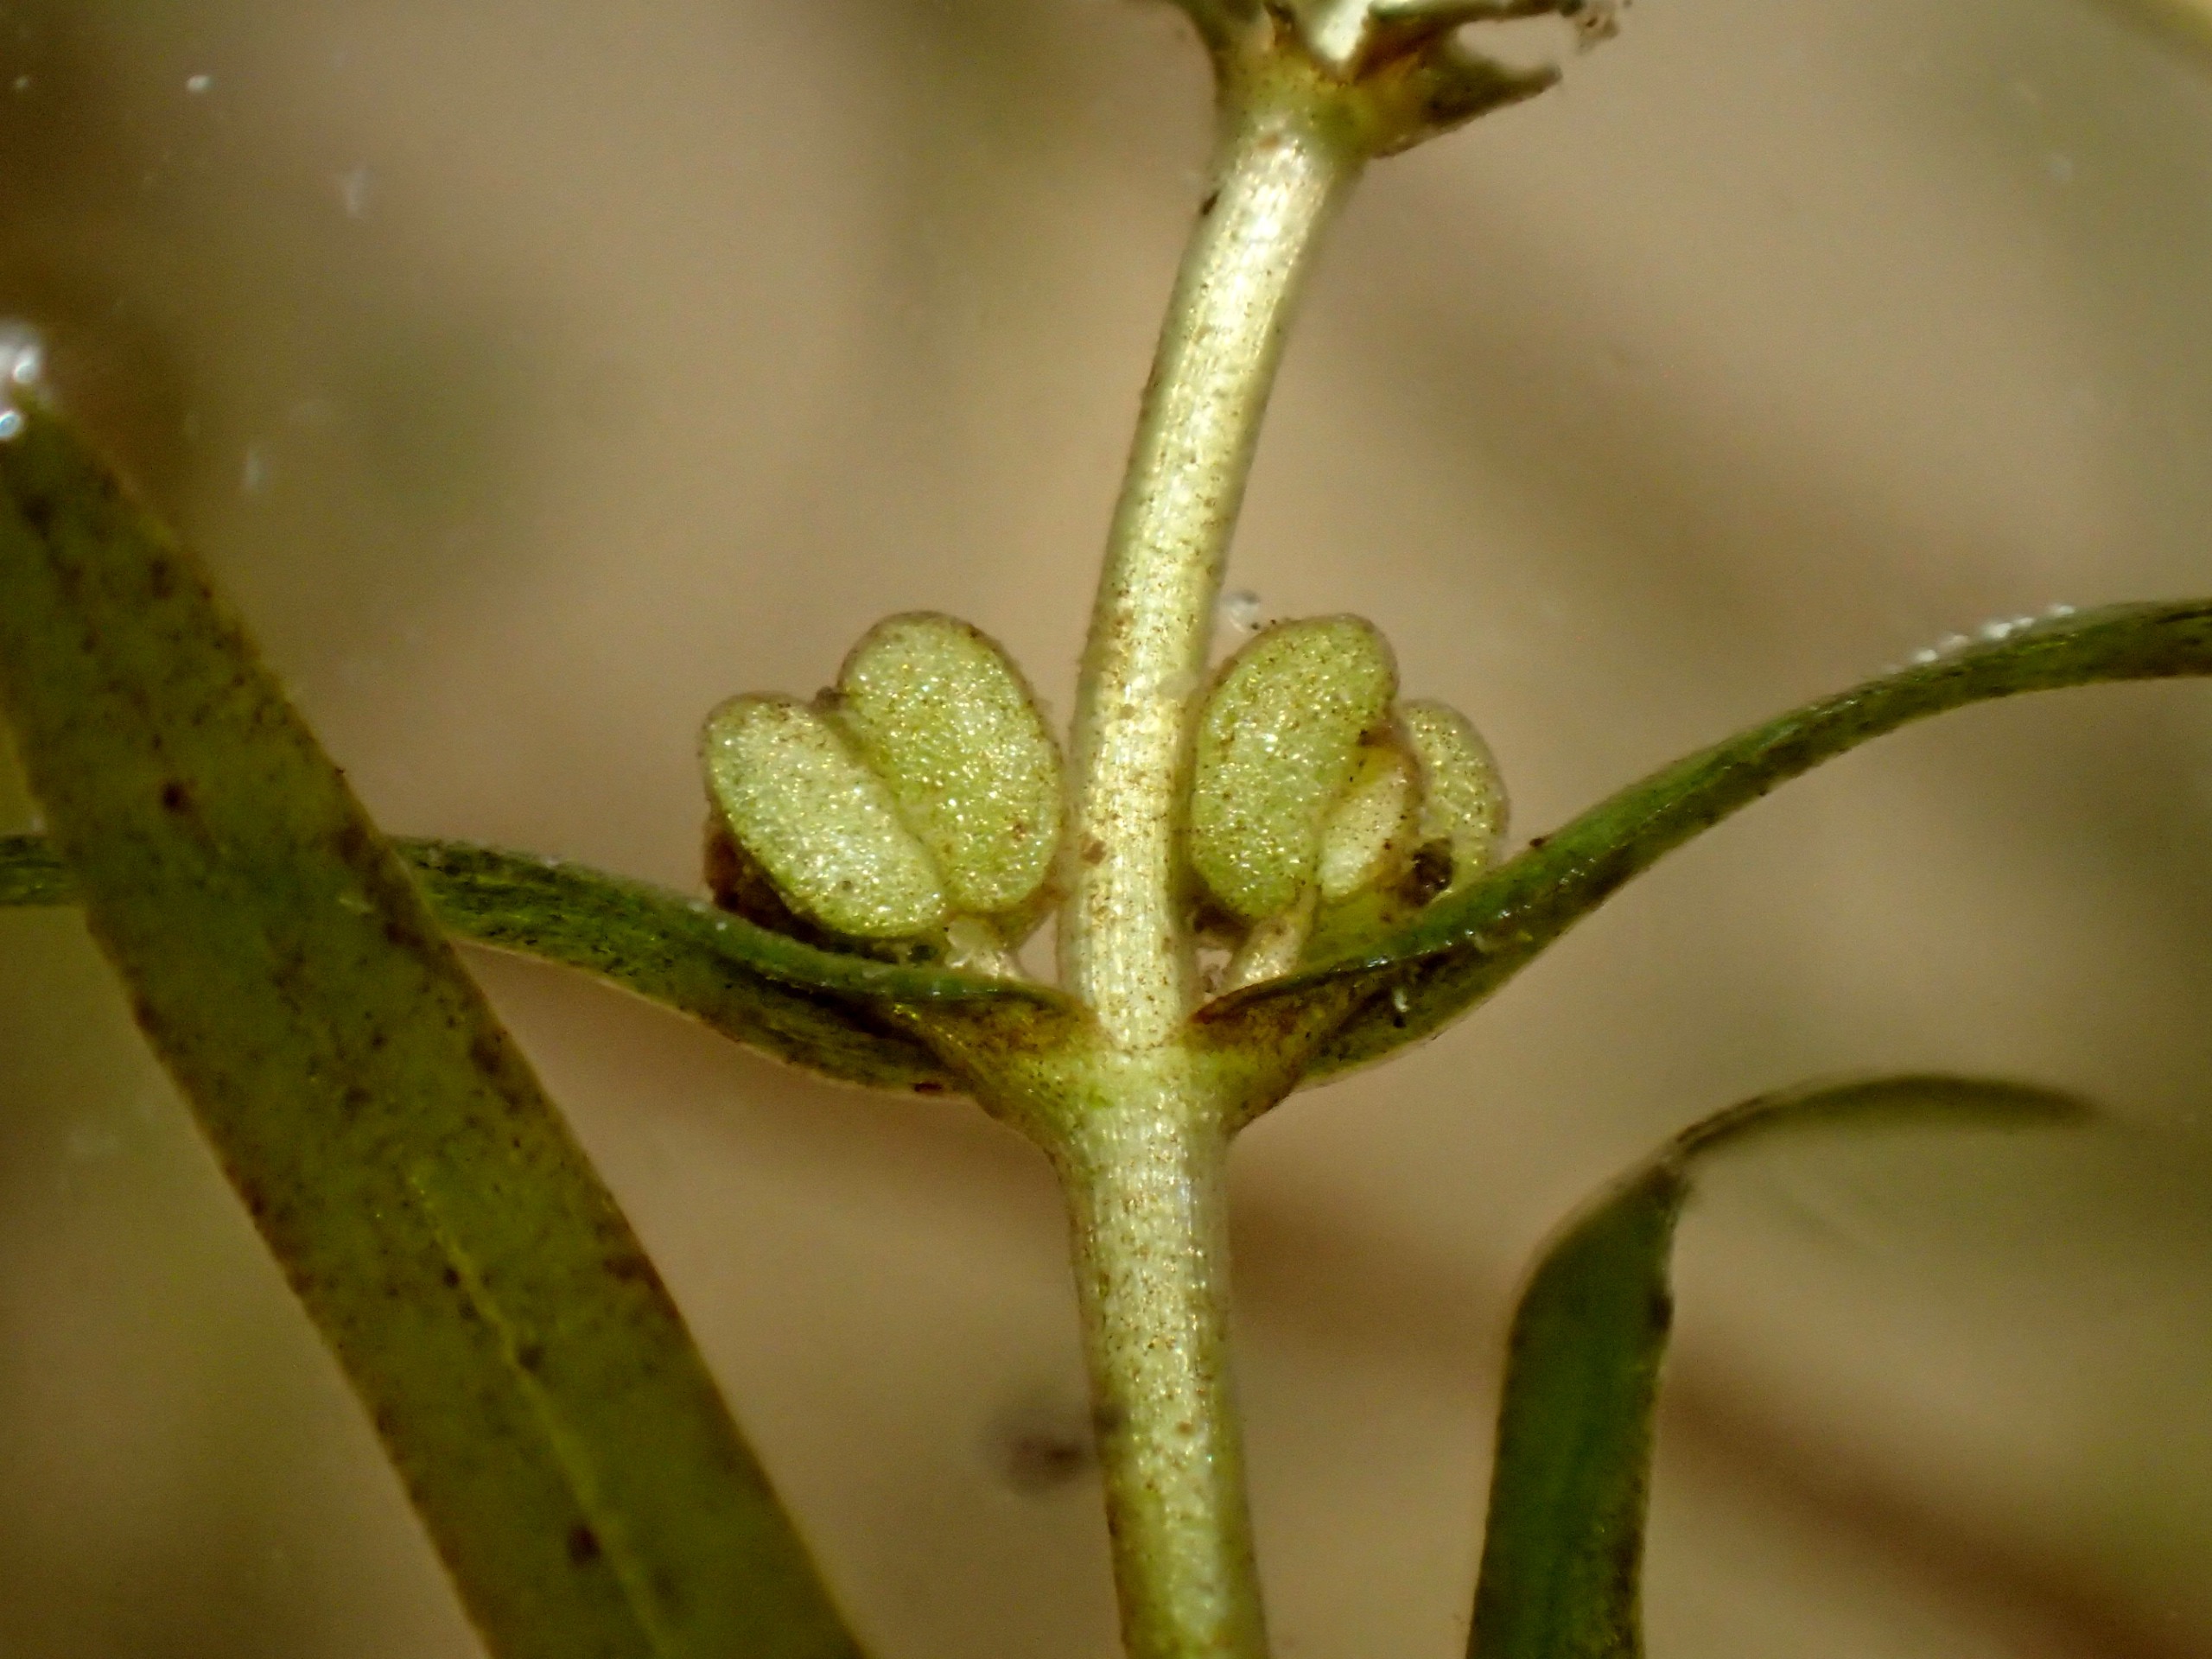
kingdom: Plantae
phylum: Tracheophyta
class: Magnoliopsida
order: Lamiales
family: Plantaginaceae
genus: Callitriche
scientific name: Callitriche truncata
